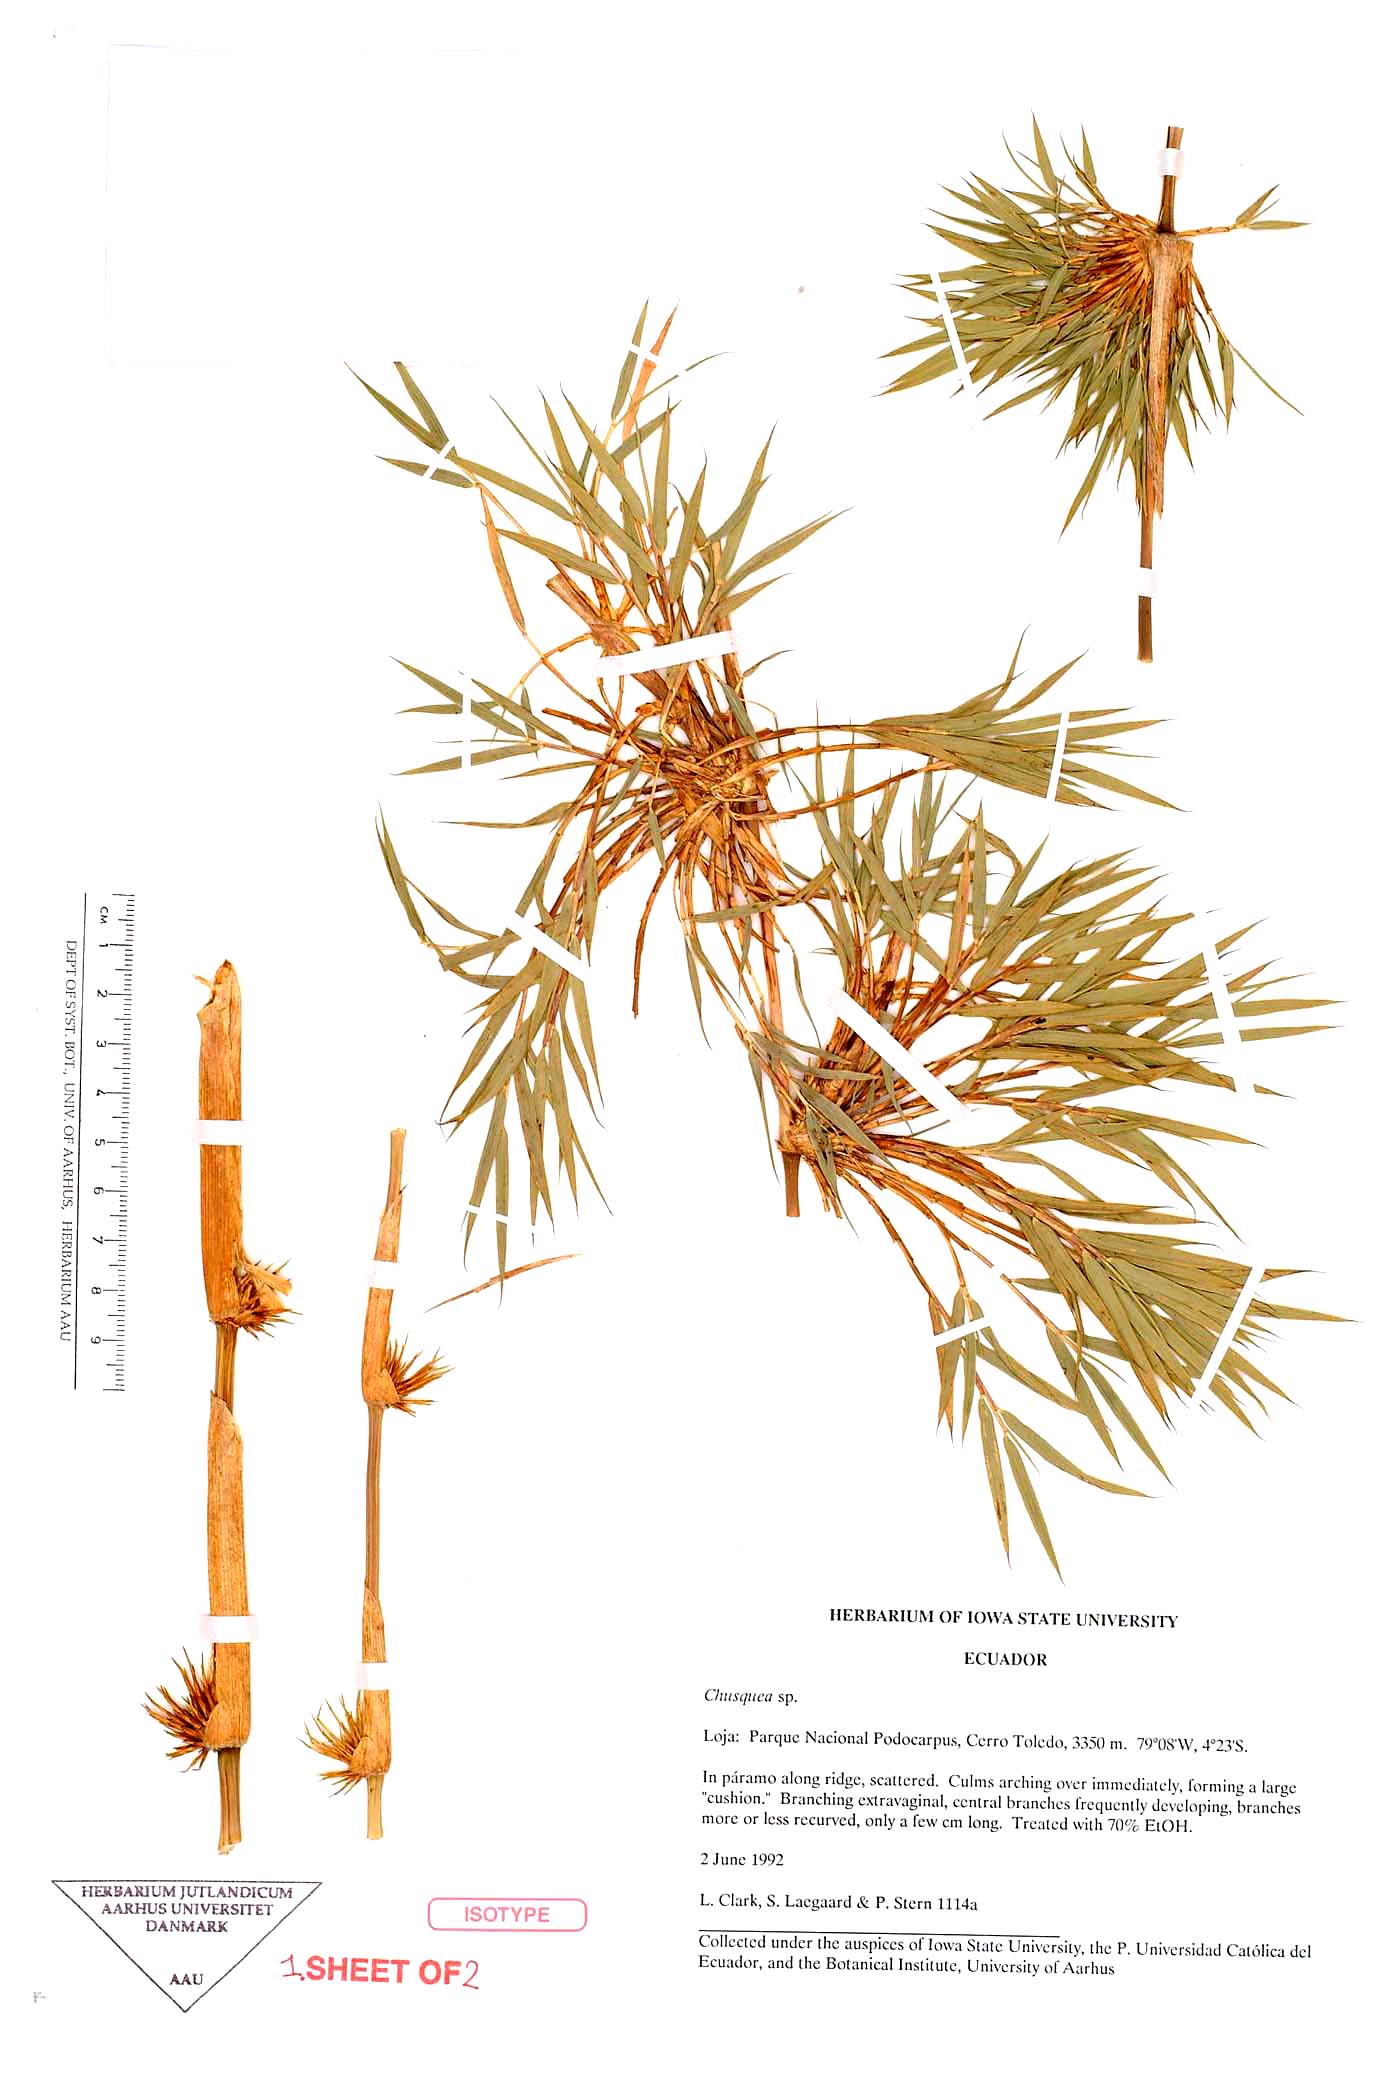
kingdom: Plantae
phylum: Tracheophyta
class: Liliopsida
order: Poales
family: Poaceae
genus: Chusquea
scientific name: Chusquea loxensis
